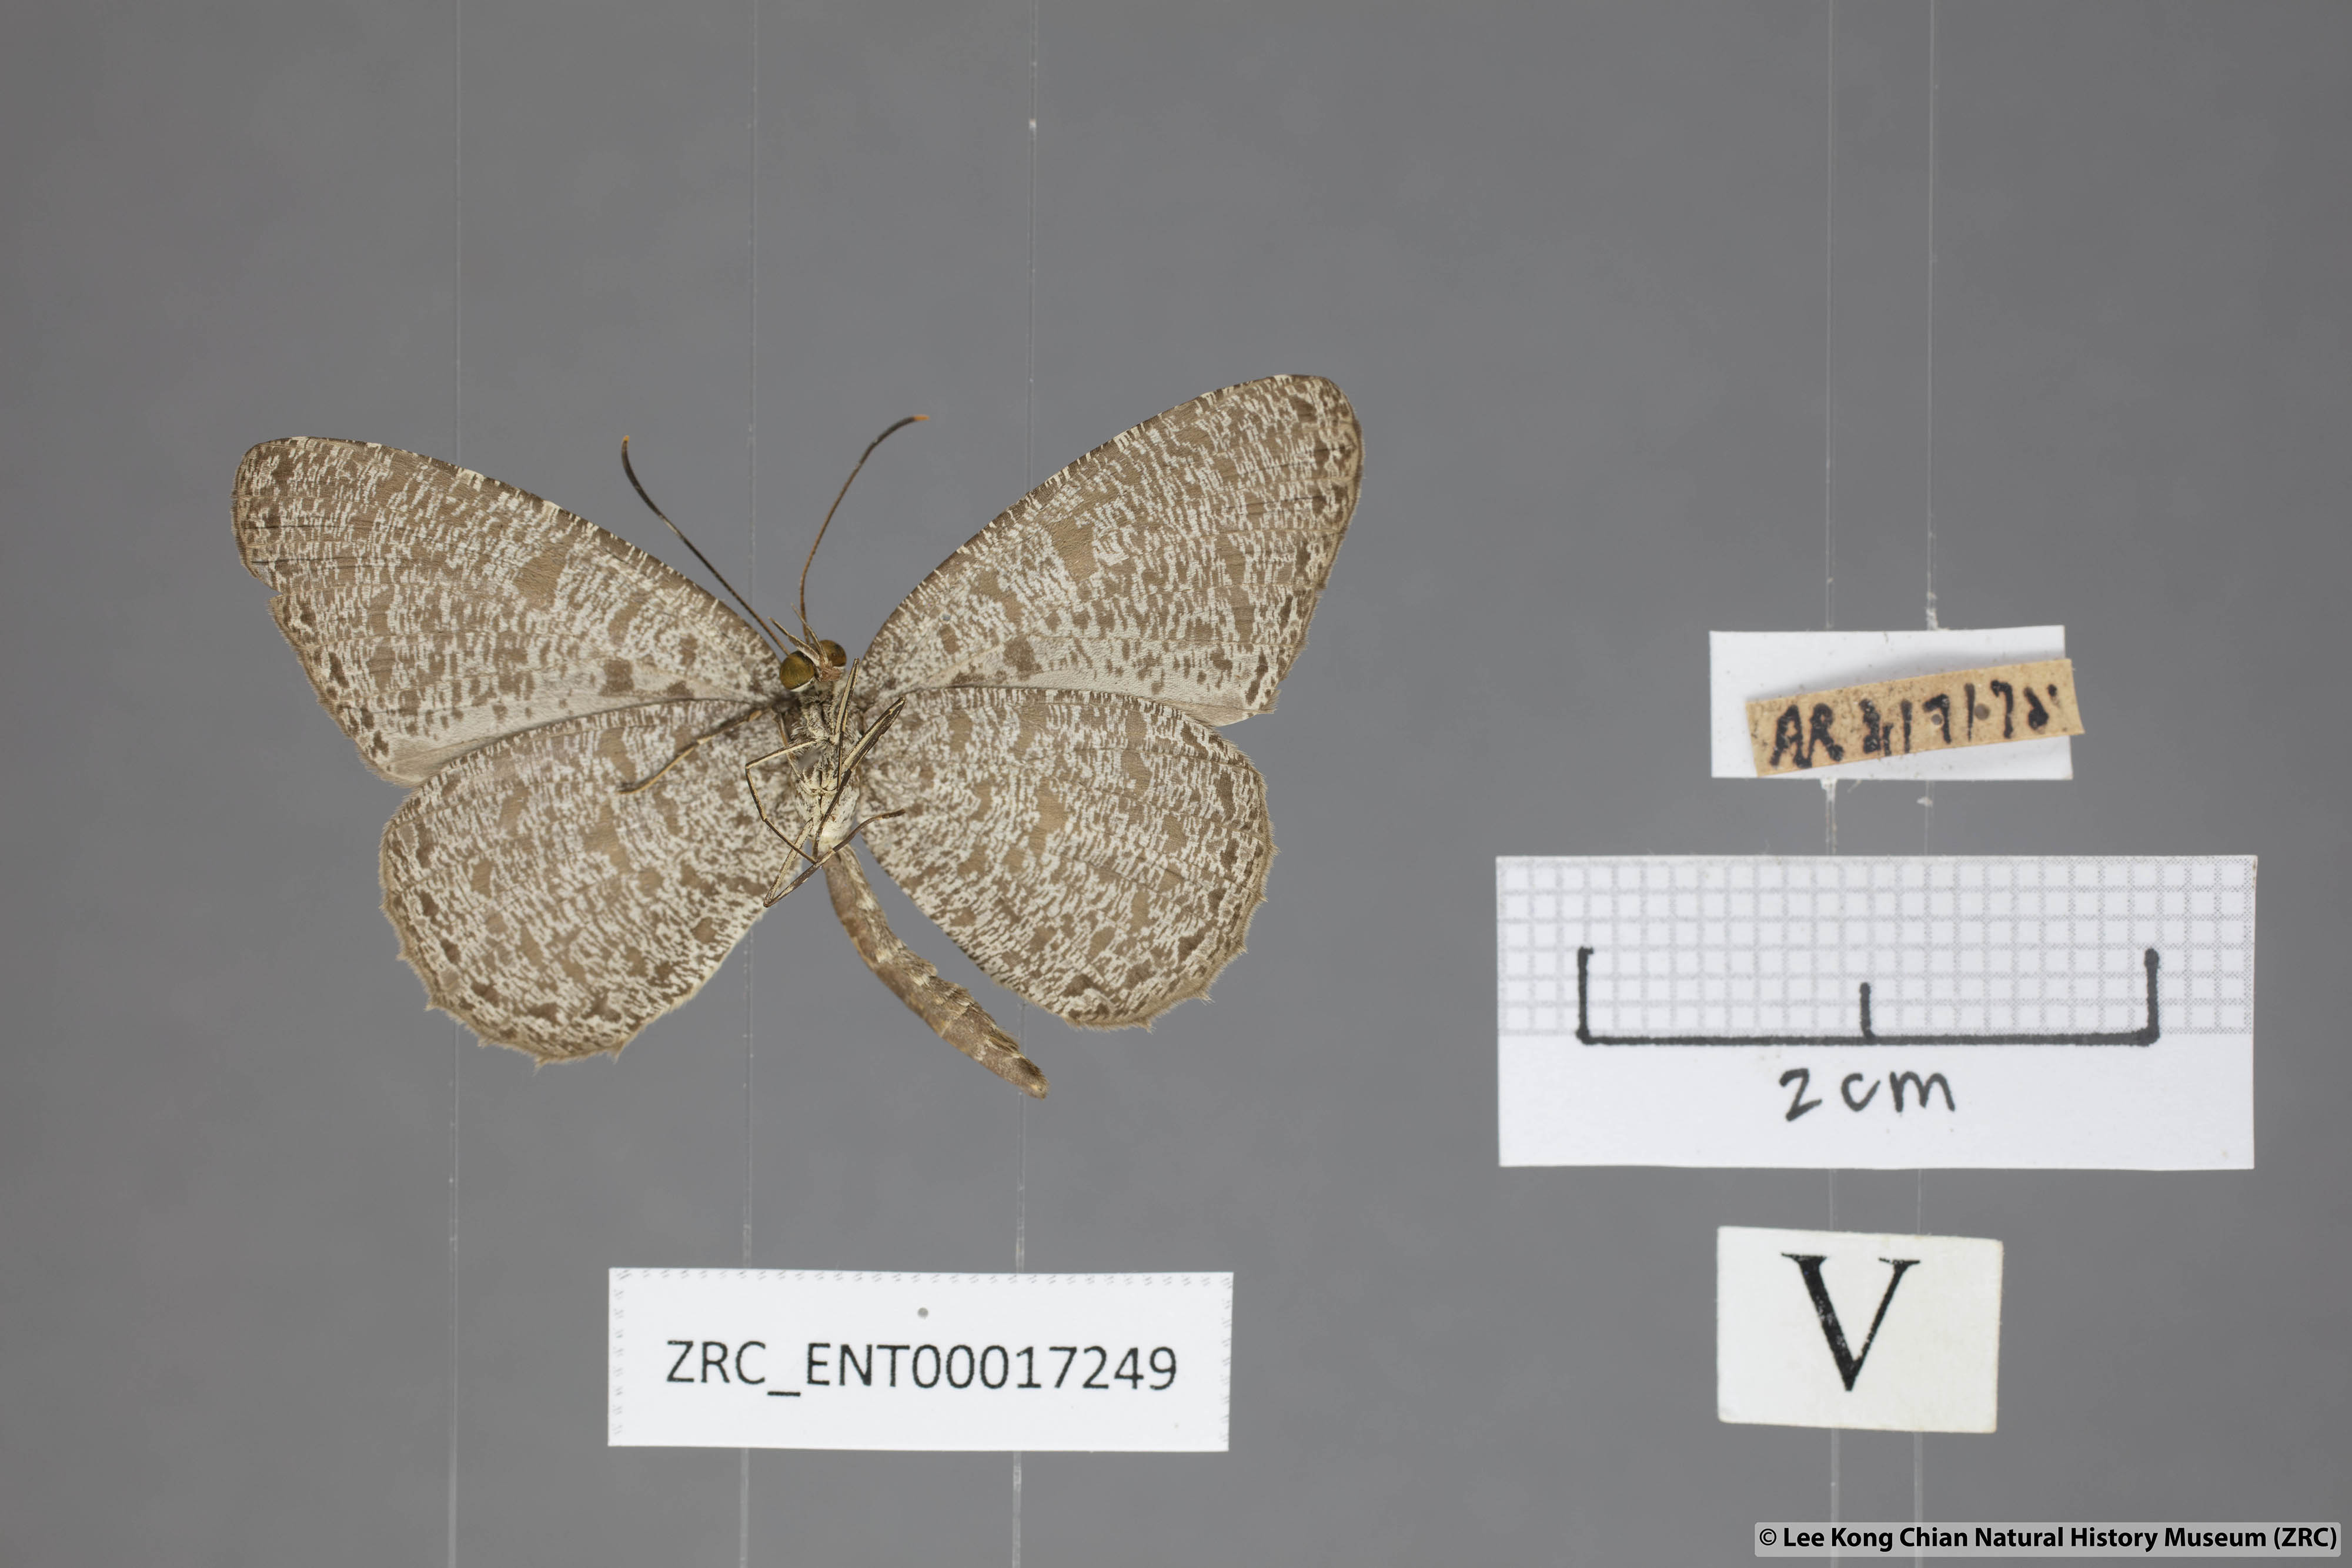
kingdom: Animalia
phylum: Arthropoda
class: Insecta
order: Lepidoptera
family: Lycaenidae
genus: Allotinus
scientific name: Allotinus horsfieldi
